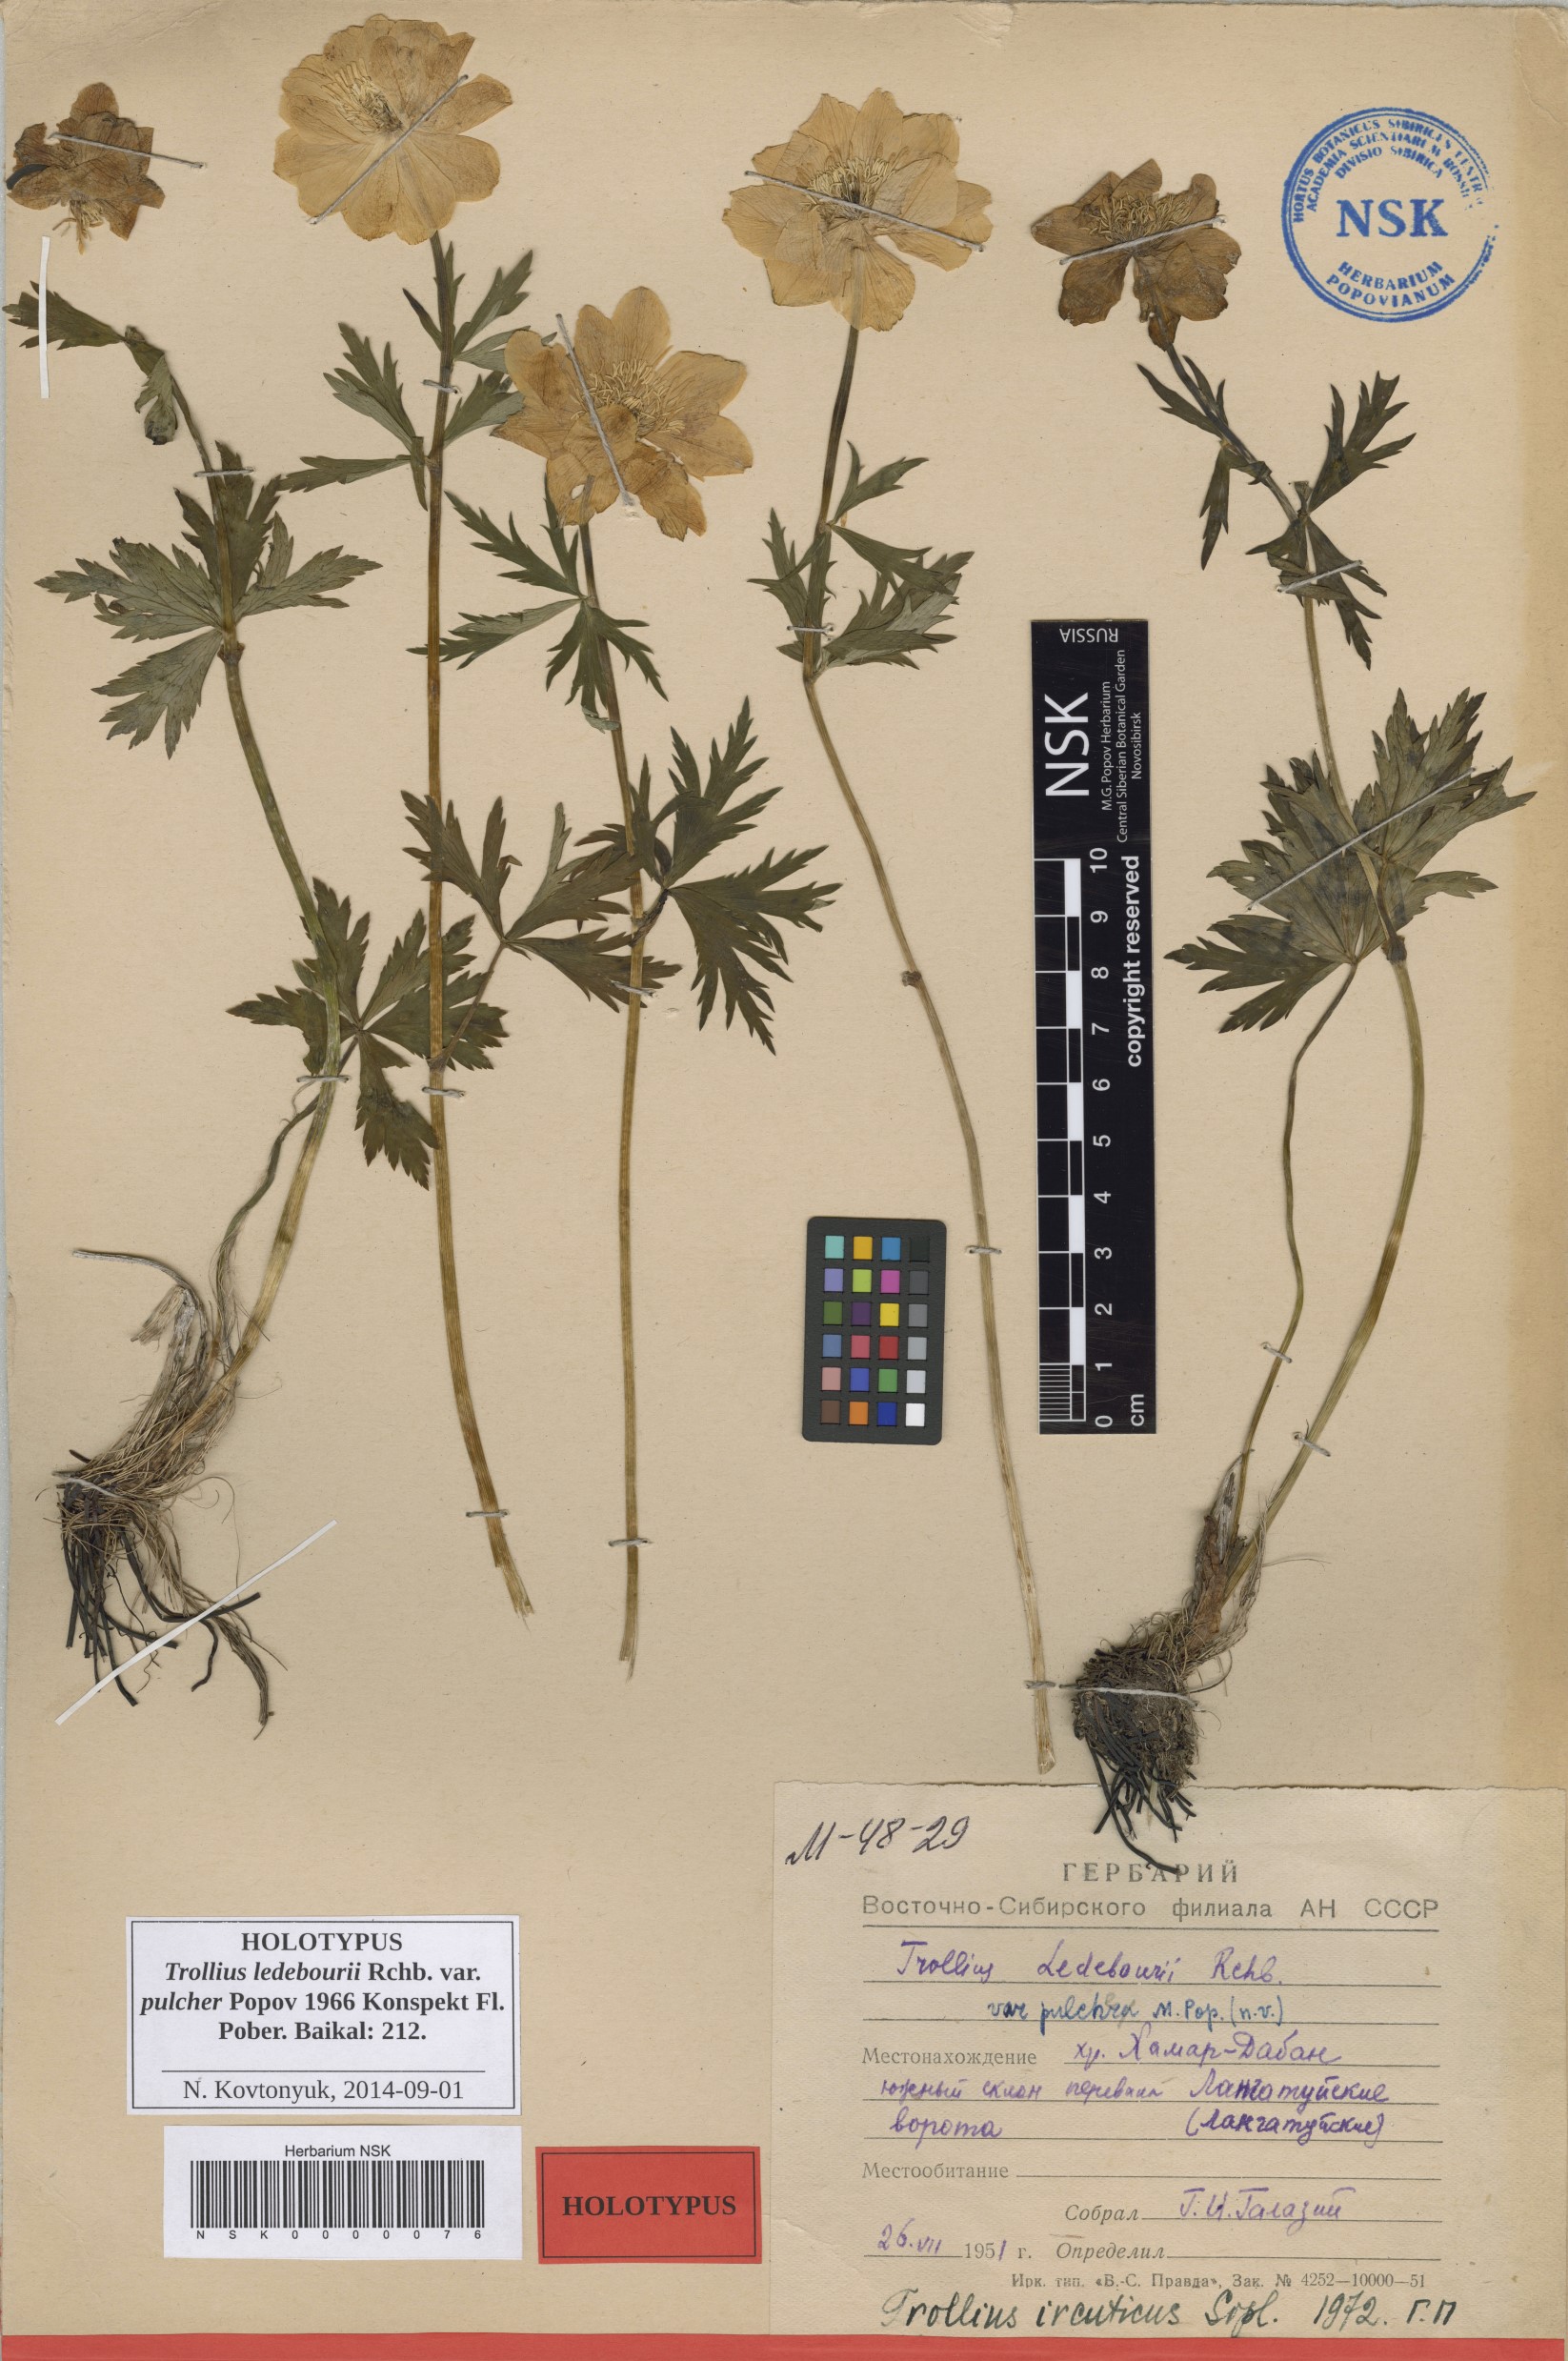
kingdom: Plantae
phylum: Tracheophyta
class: Magnoliopsida
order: Ranunculales
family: Ranunculaceae
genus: Trollius
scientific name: Trollius ledebourii
